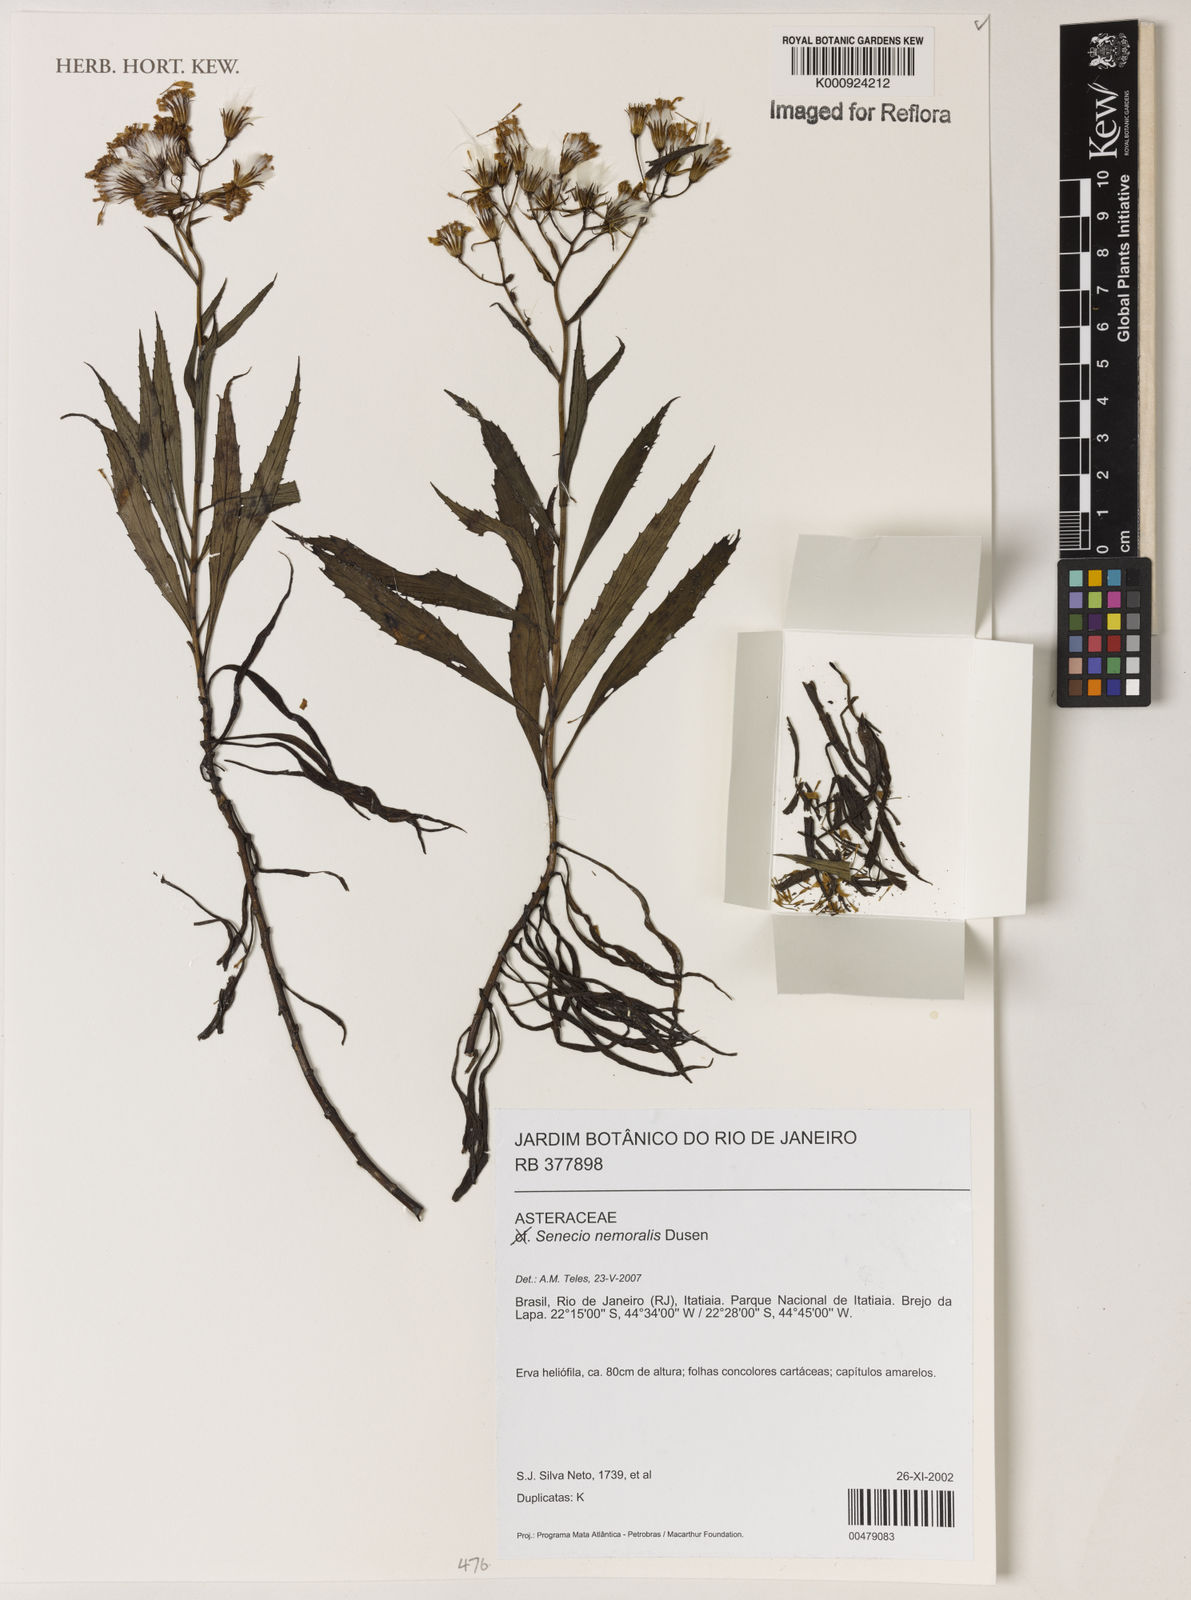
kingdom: Plantae
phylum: Tracheophyta
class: Magnoliopsida
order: Asterales
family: Asteraceae
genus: Senecio
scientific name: Senecio
